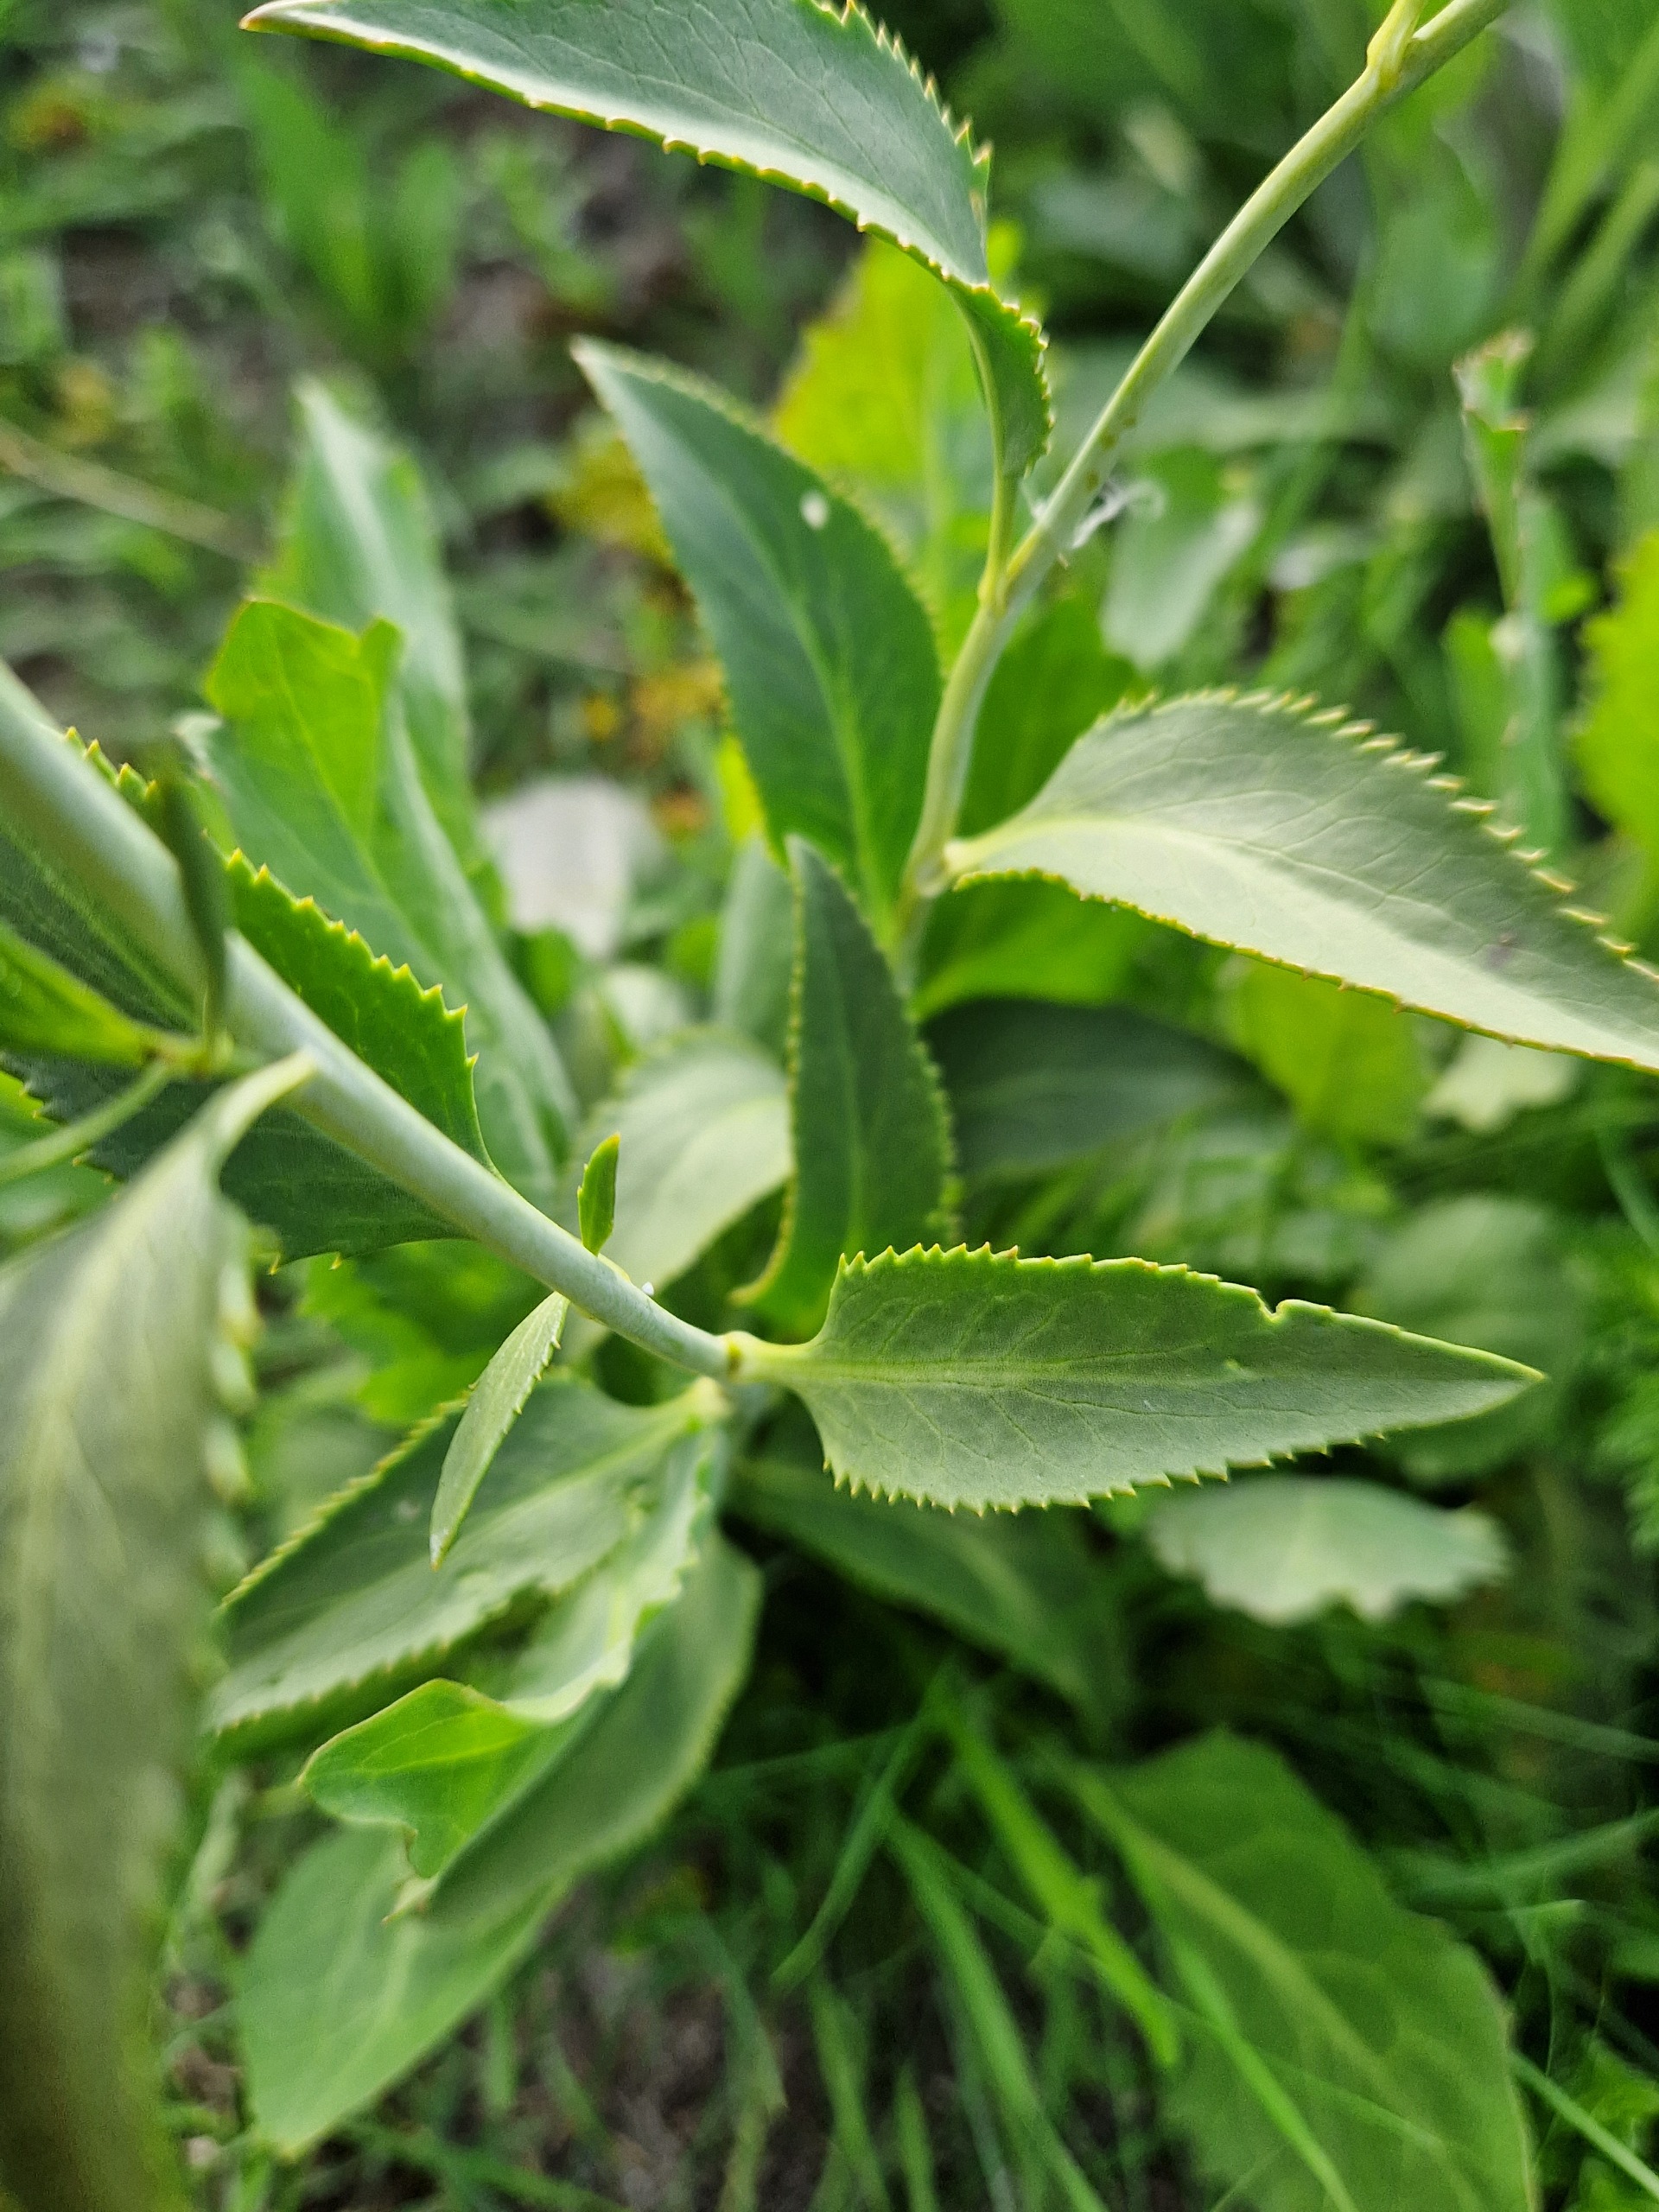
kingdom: Plantae
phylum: Tracheophyta
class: Magnoliopsida
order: Brassicales
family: Brassicaceae
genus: Lepidium
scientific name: Lepidium latifolium
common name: Strand-karse
